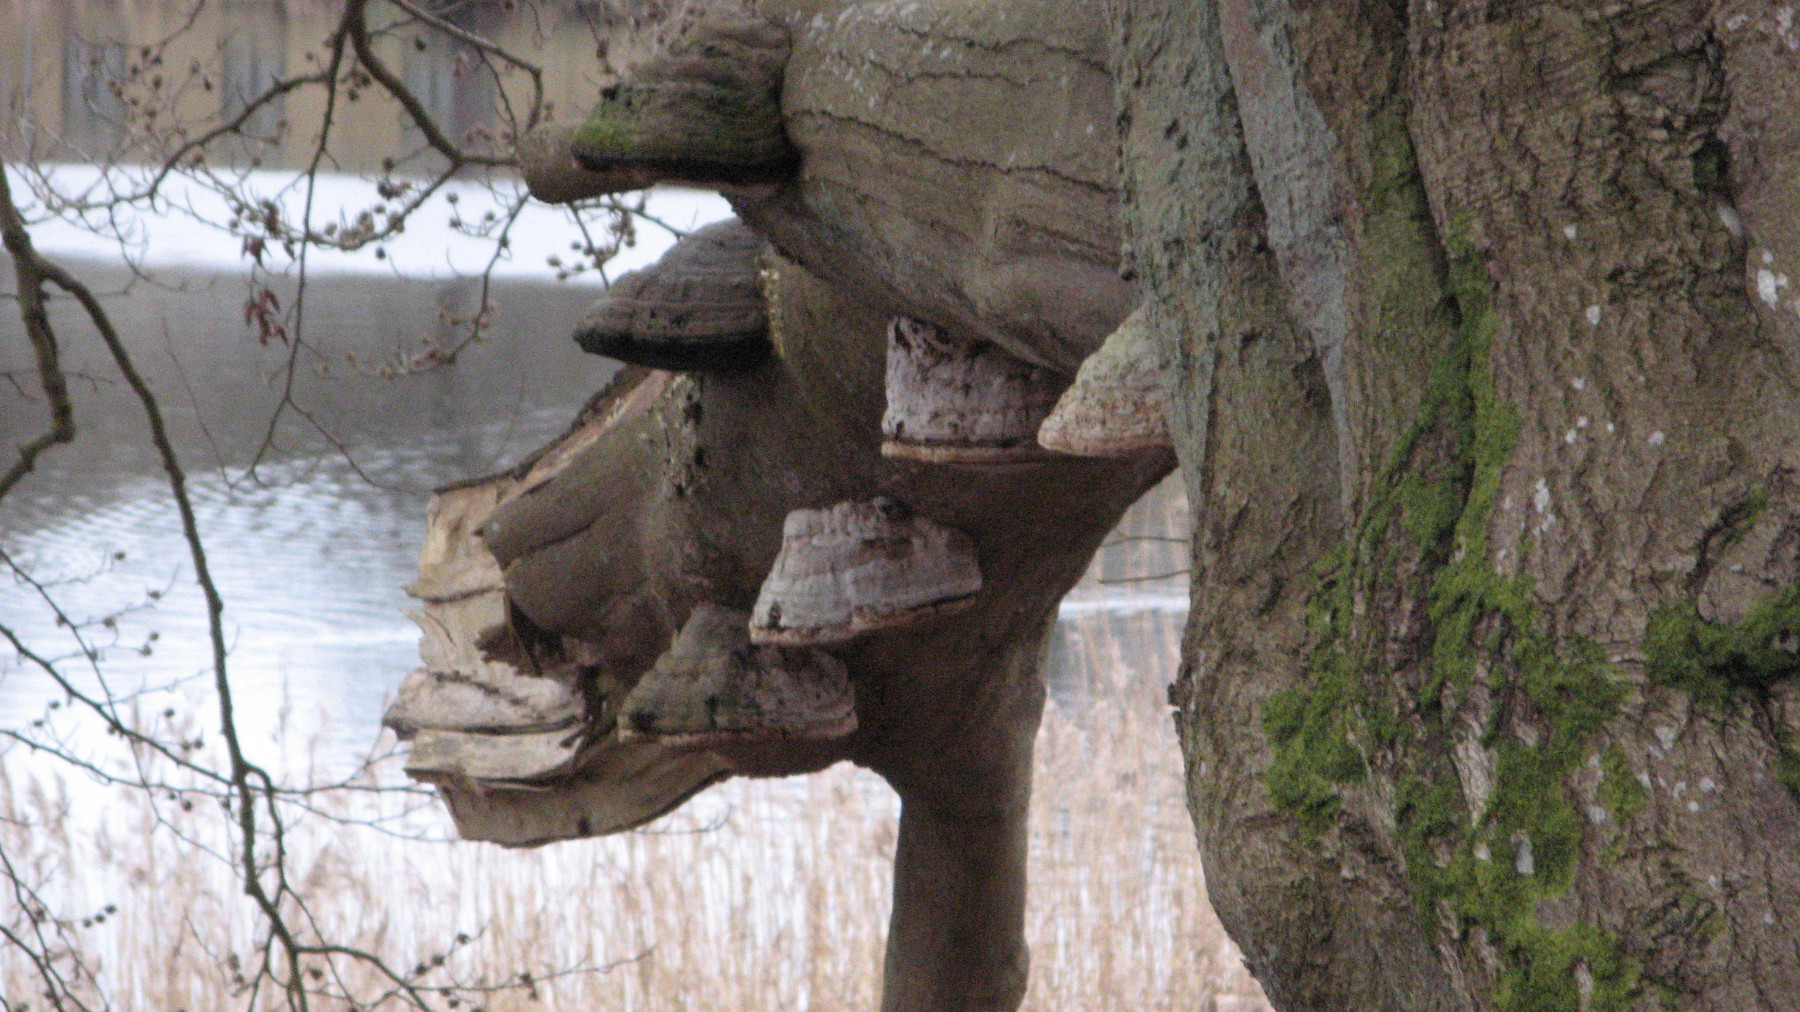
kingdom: Fungi
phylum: Basidiomycota
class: Agaricomycetes
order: Polyporales
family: Polyporaceae
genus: Fomes
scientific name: Fomes fomentarius
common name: tøndersvamp
